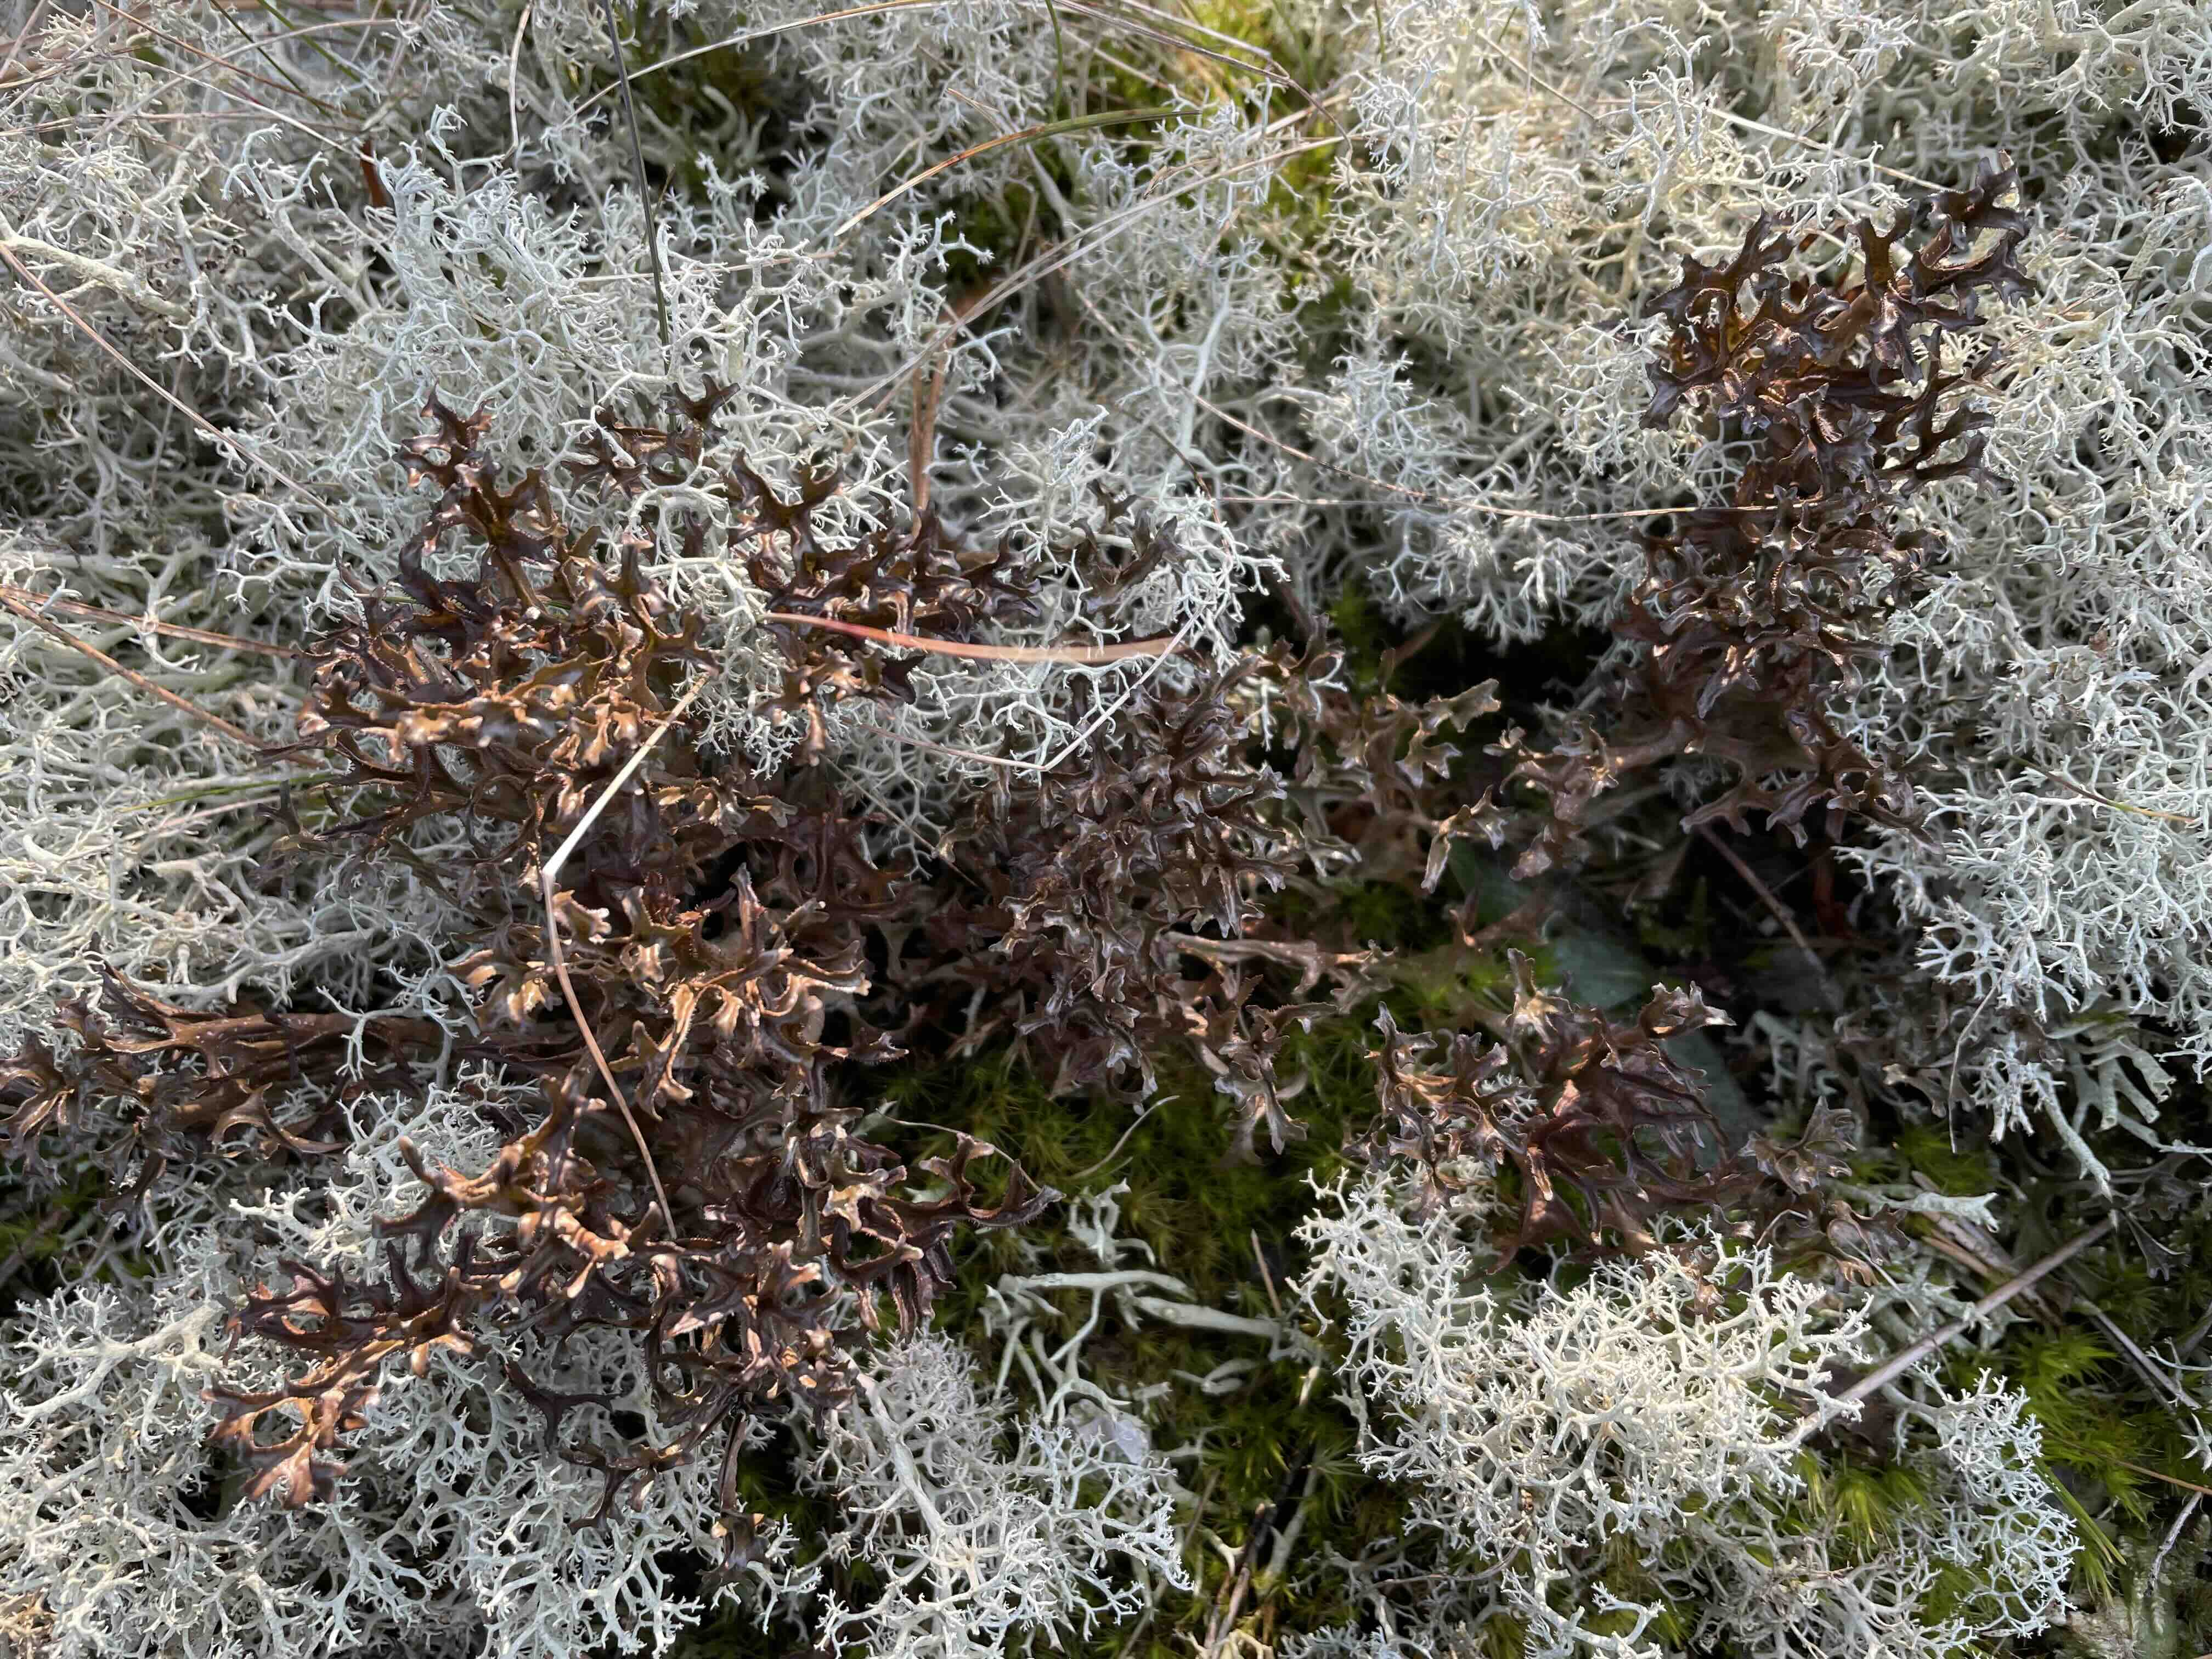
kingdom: Fungi
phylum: Ascomycota
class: Lecanoromycetes
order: Lecanorales
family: Parmeliaceae
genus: Cetraria
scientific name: Cetraria islandica
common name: islandsk kruslav
